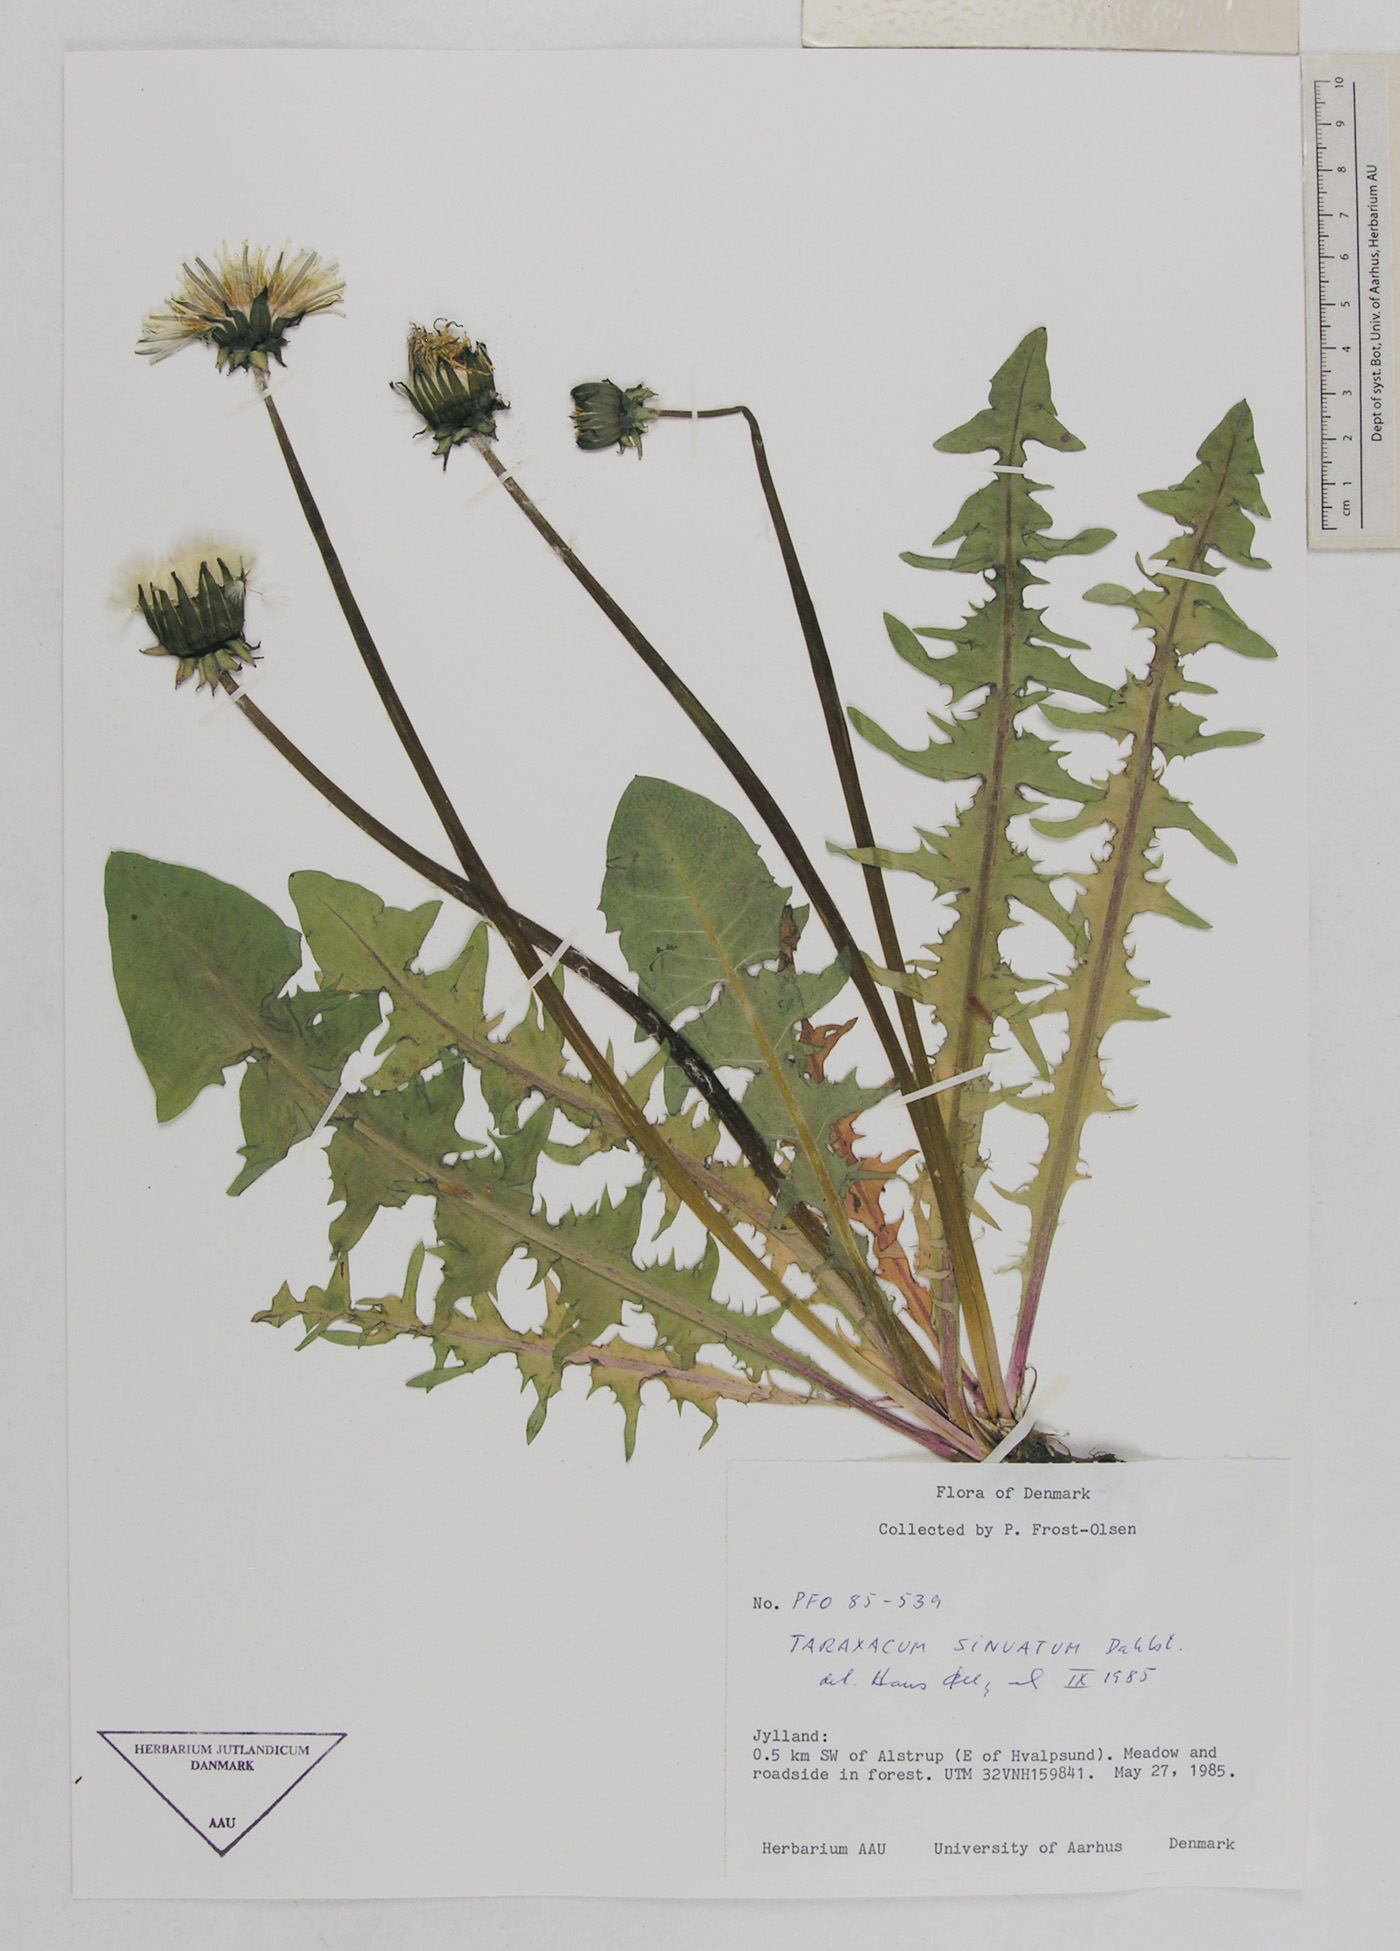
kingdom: Plantae
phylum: Tracheophyta
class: Magnoliopsida
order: Asterales
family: Asteraceae
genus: Taraxacum
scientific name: Taraxacum sinuatum
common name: Sinuate-lobed dandelion
